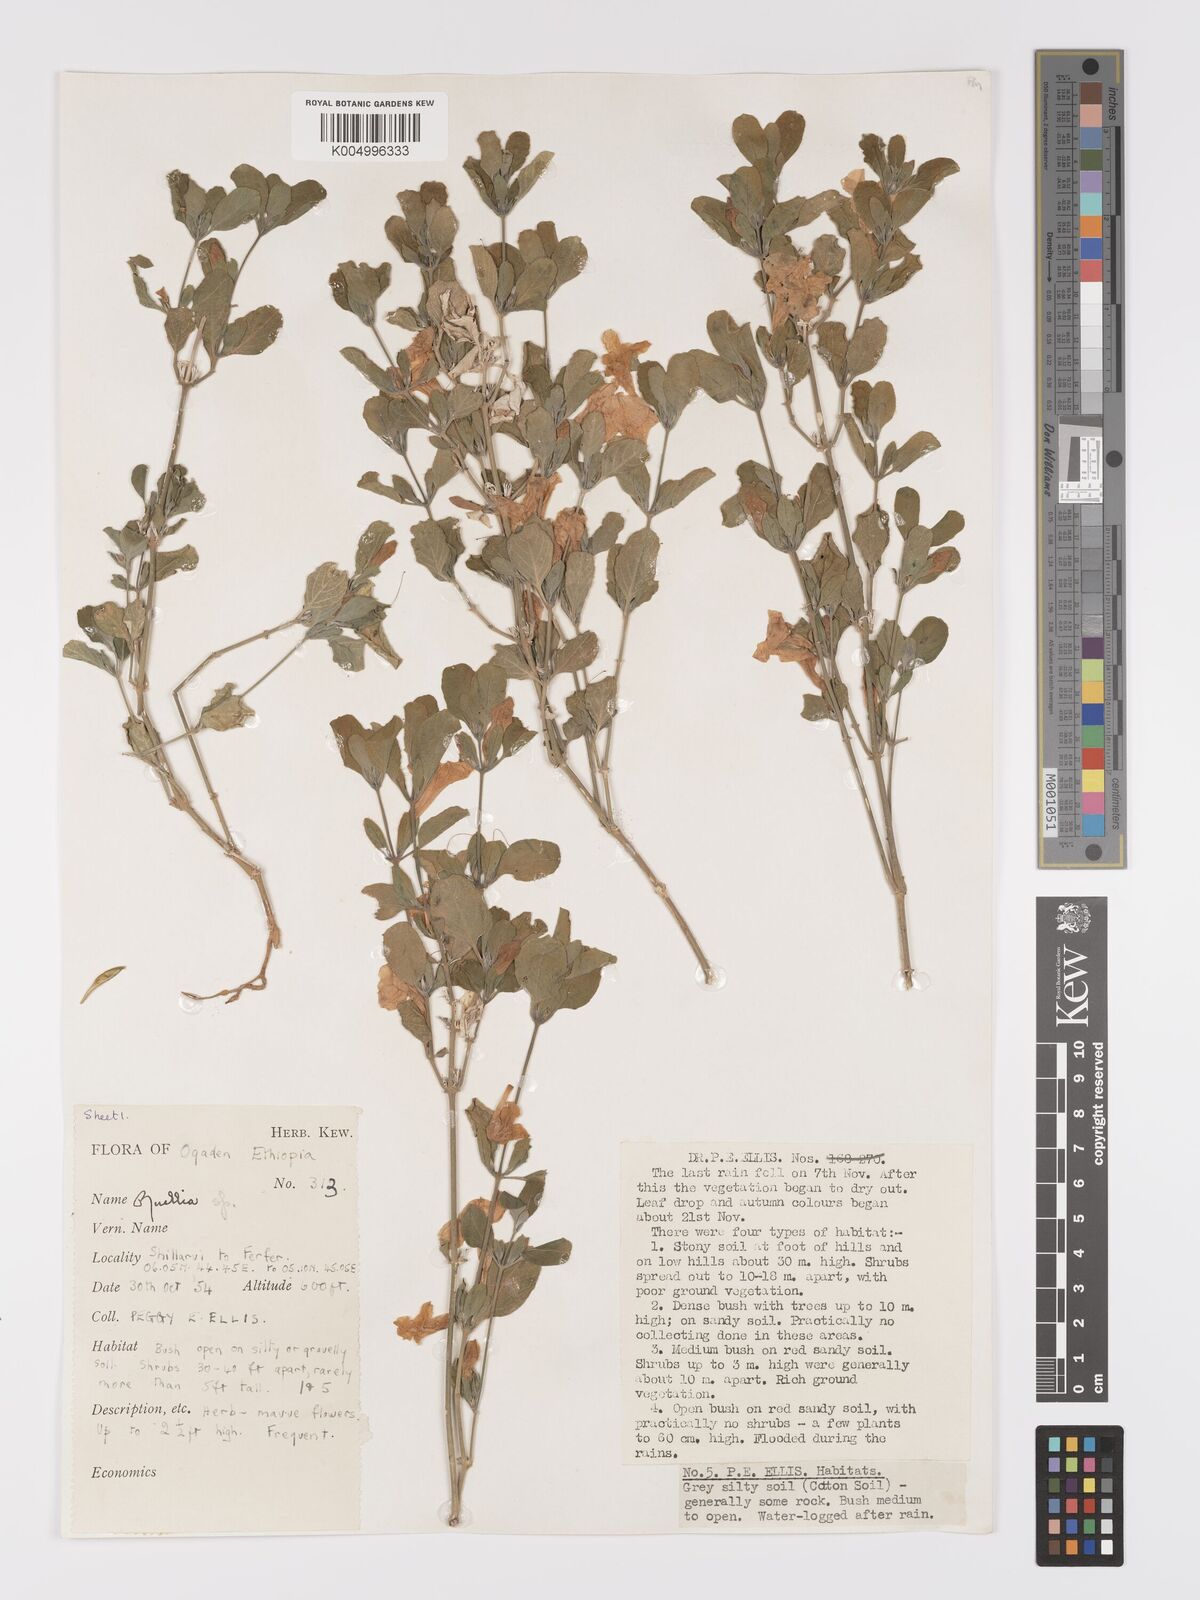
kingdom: Plantae
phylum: Tracheophyta
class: Magnoliopsida
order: Lamiales
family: Acanthaceae
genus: Ruellia
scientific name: Ruellia patula
